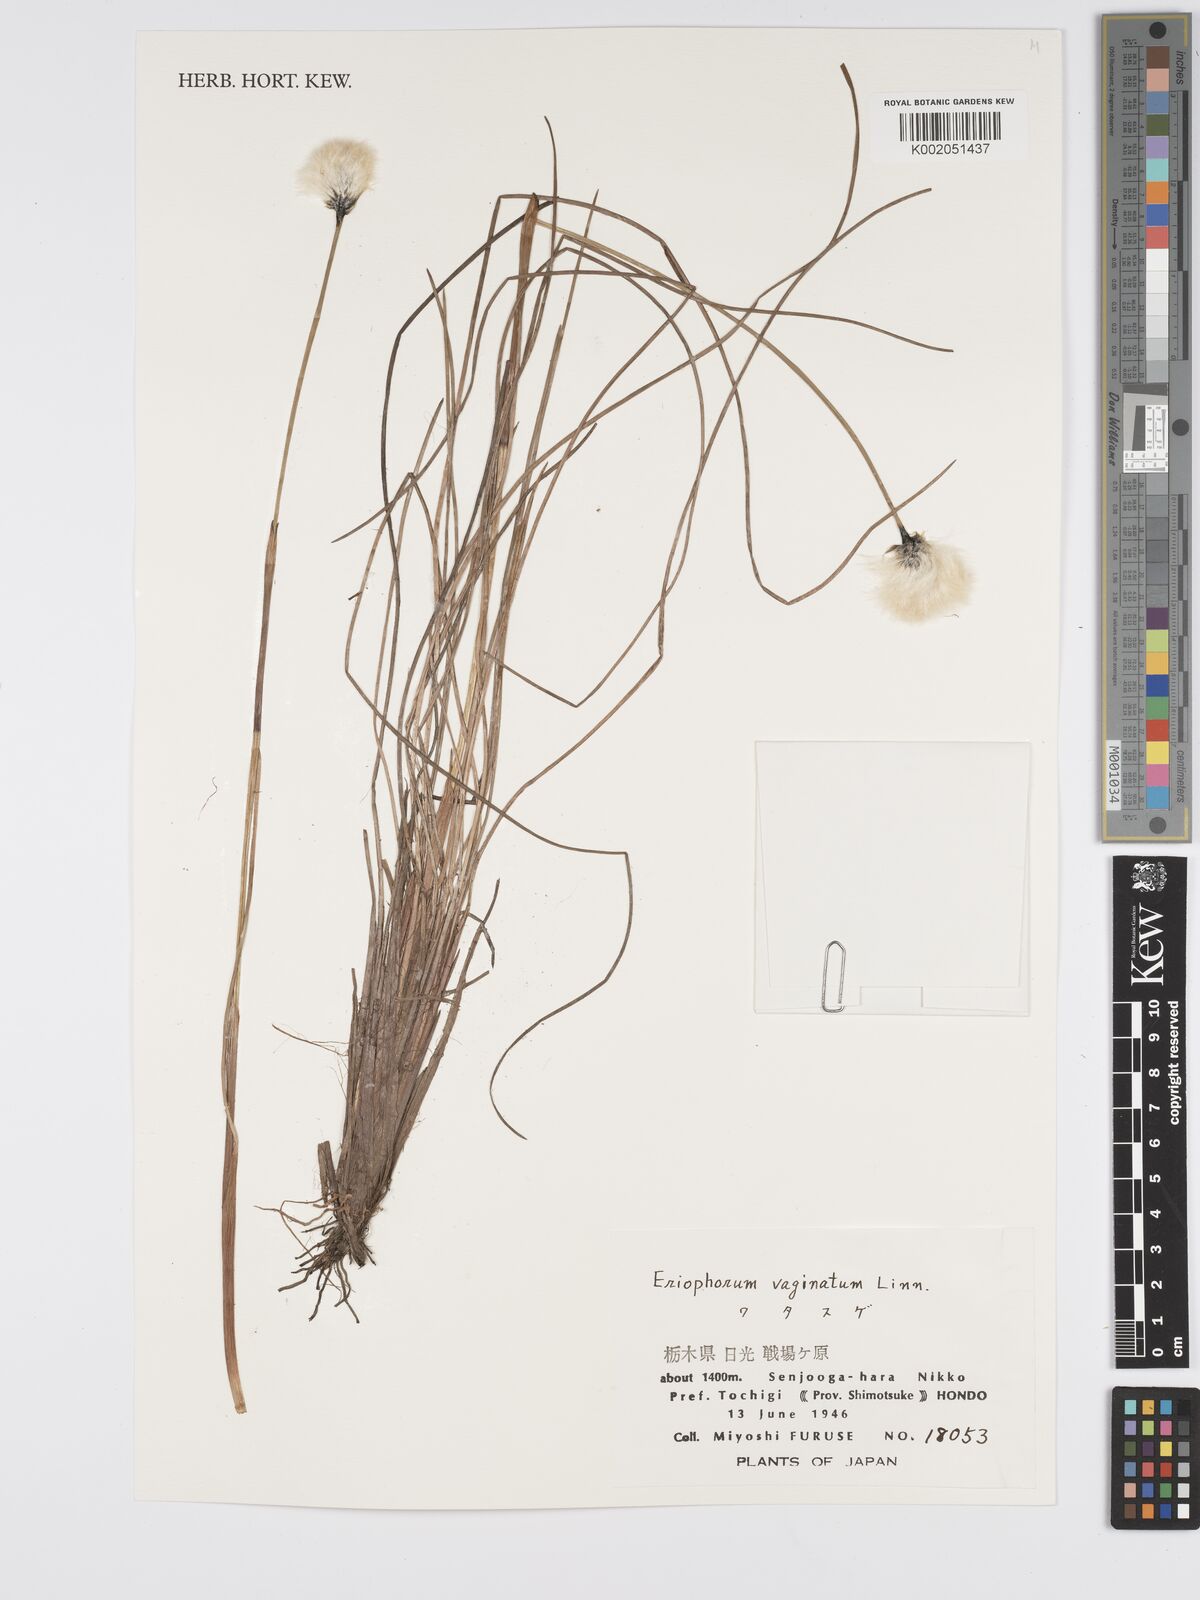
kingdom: Plantae
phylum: Tracheophyta
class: Liliopsida
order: Poales
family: Cyperaceae
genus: Eriophorum
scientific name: Eriophorum vaginatum
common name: Hare's-tail cottongrass
